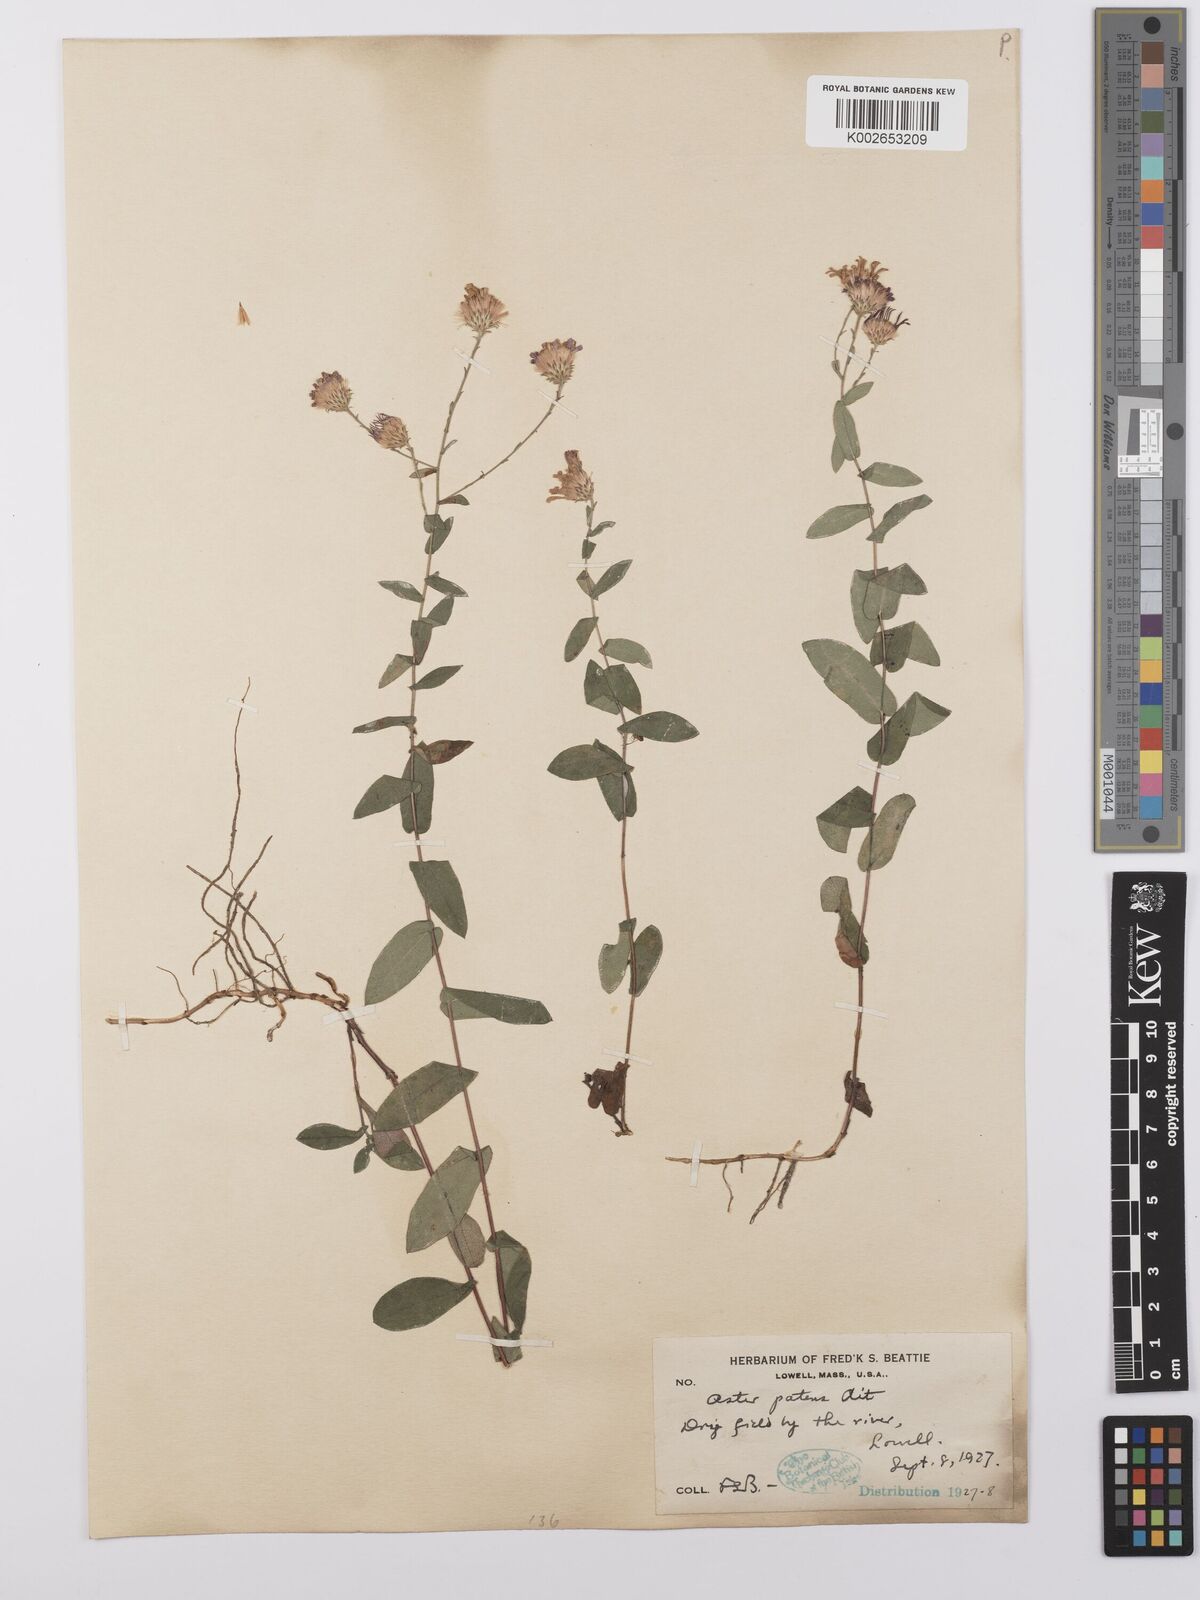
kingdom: Plantae
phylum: Tracheophyta
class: Magnoliopsida
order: Asterales
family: Asteraceae
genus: Symphyotrichum
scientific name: Symphyotrichum patens
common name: Late purple aster
